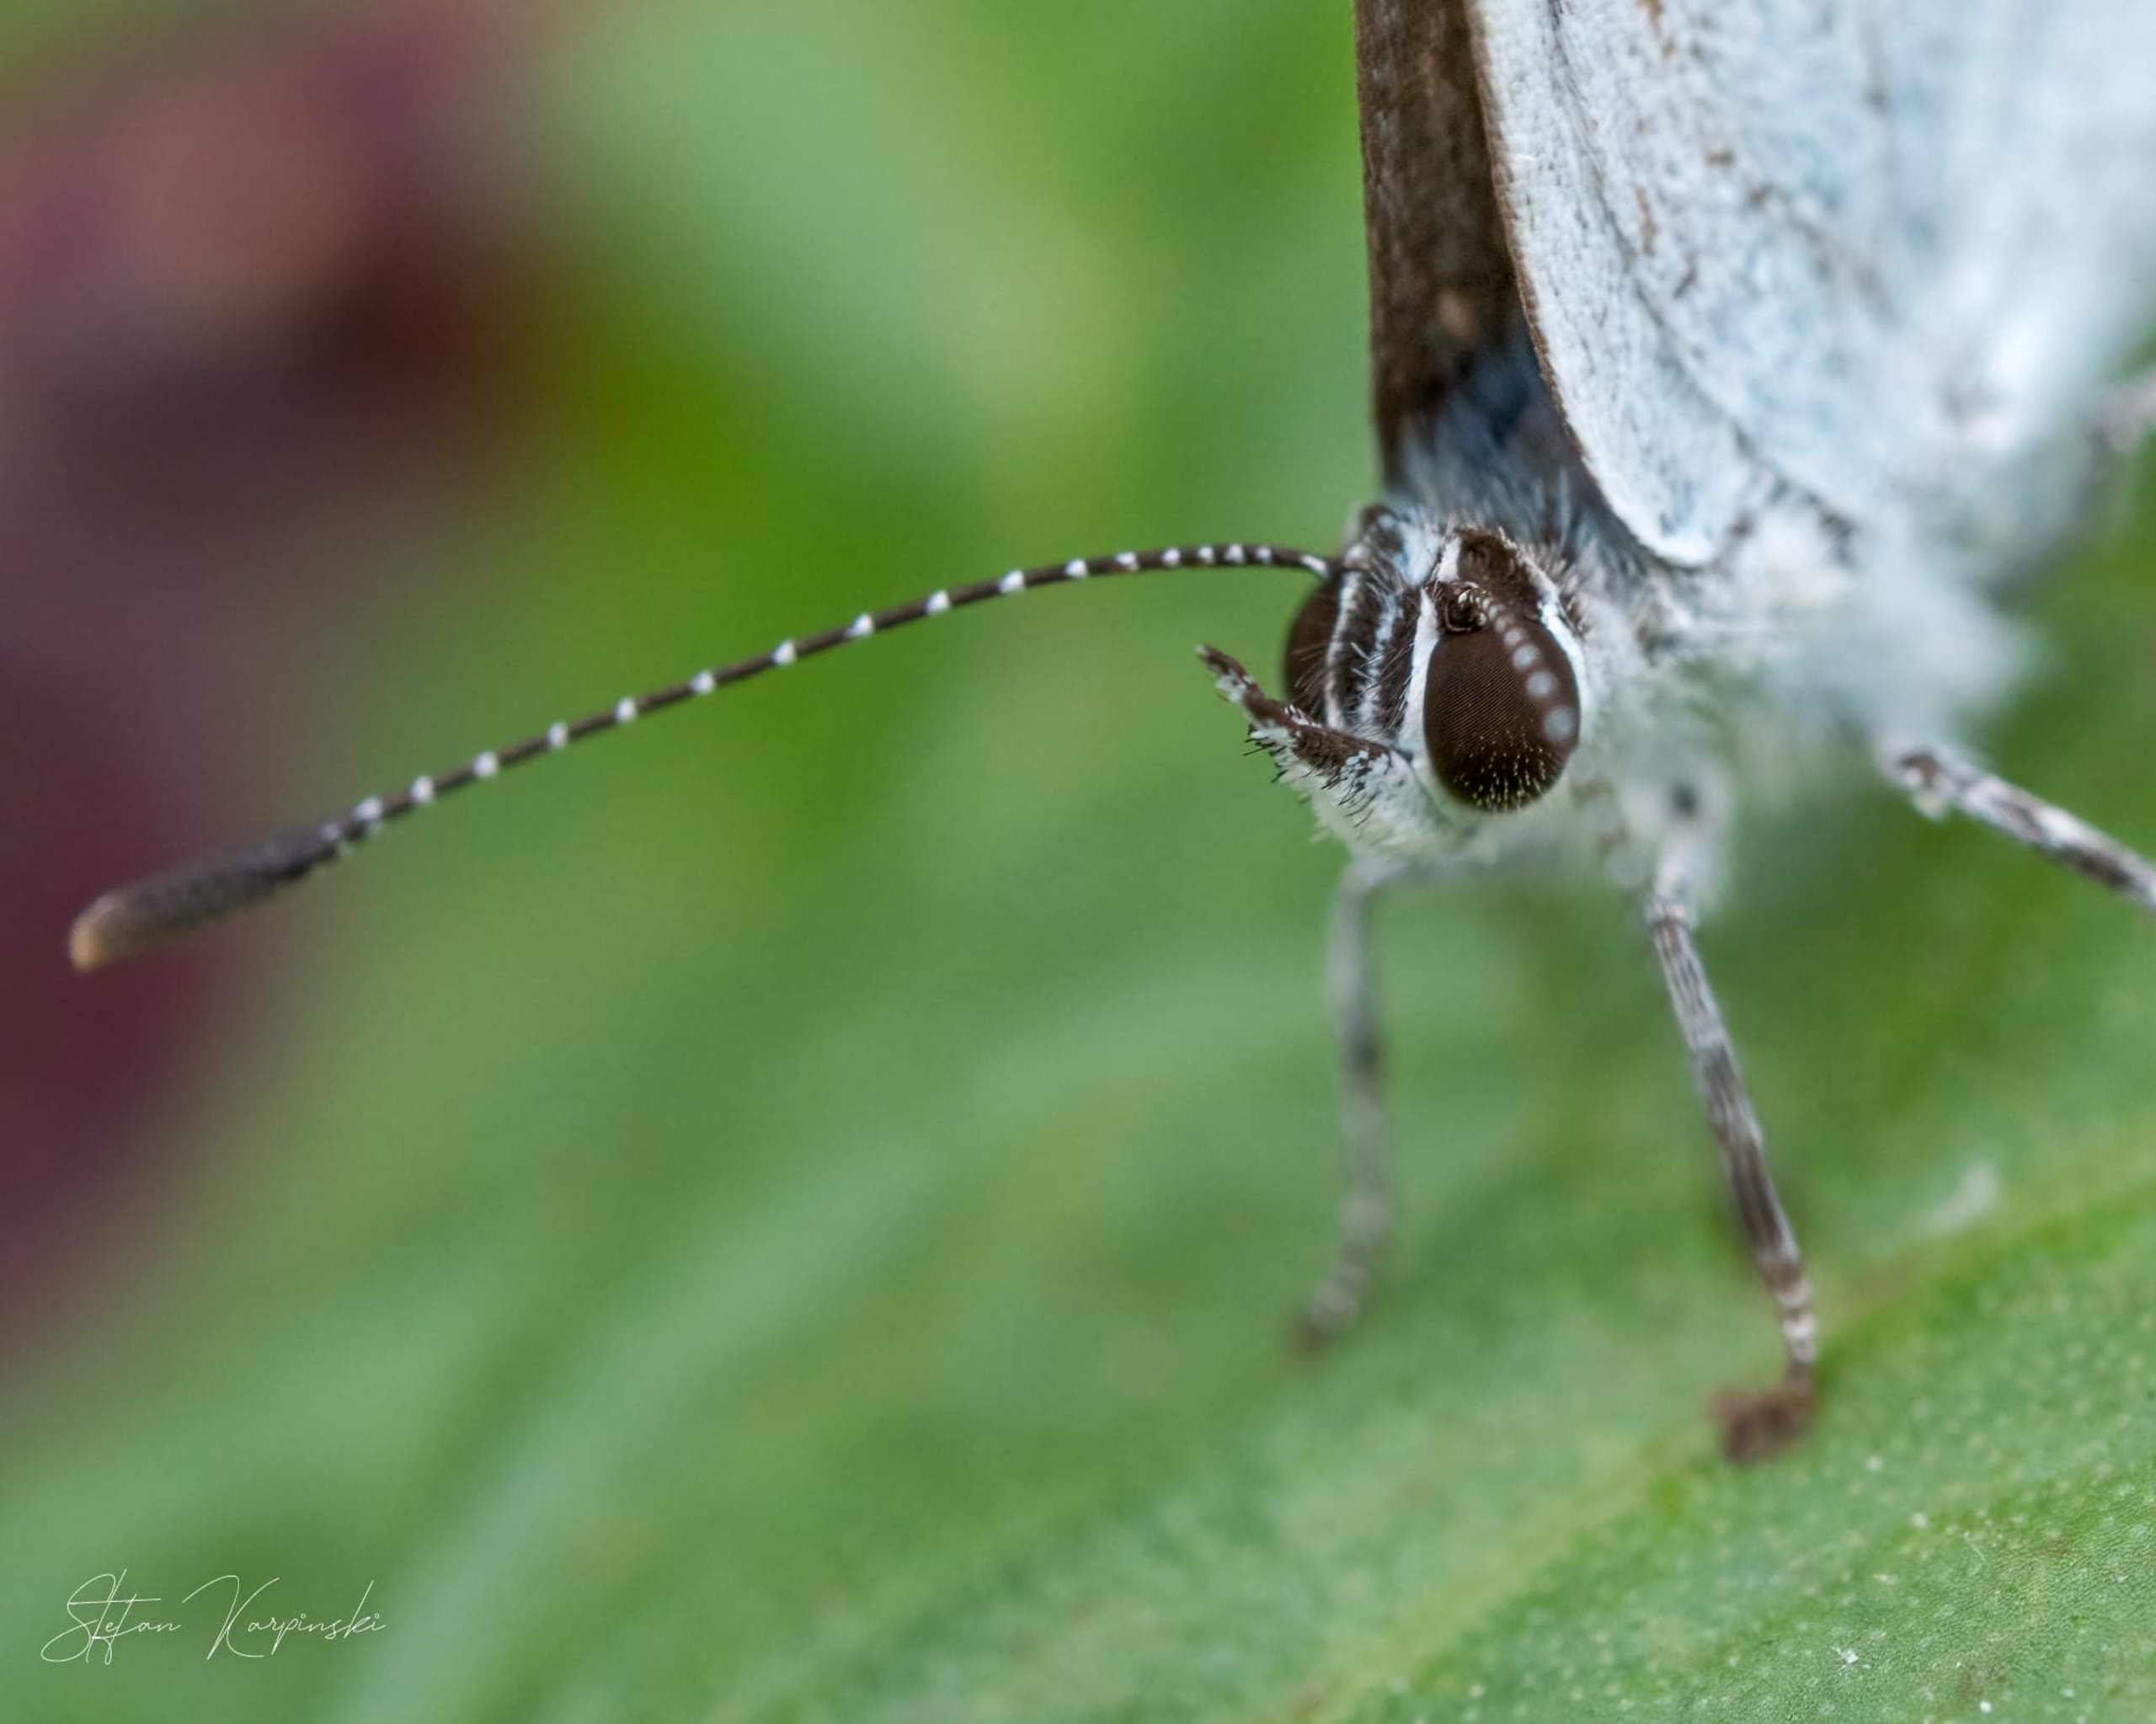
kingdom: Animalia
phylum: Arthropoda
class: Insecta
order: Lepidoptera
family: Lycaenidae
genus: Celastrina
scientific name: Celastrina argiolus
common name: Skovblåfugl
